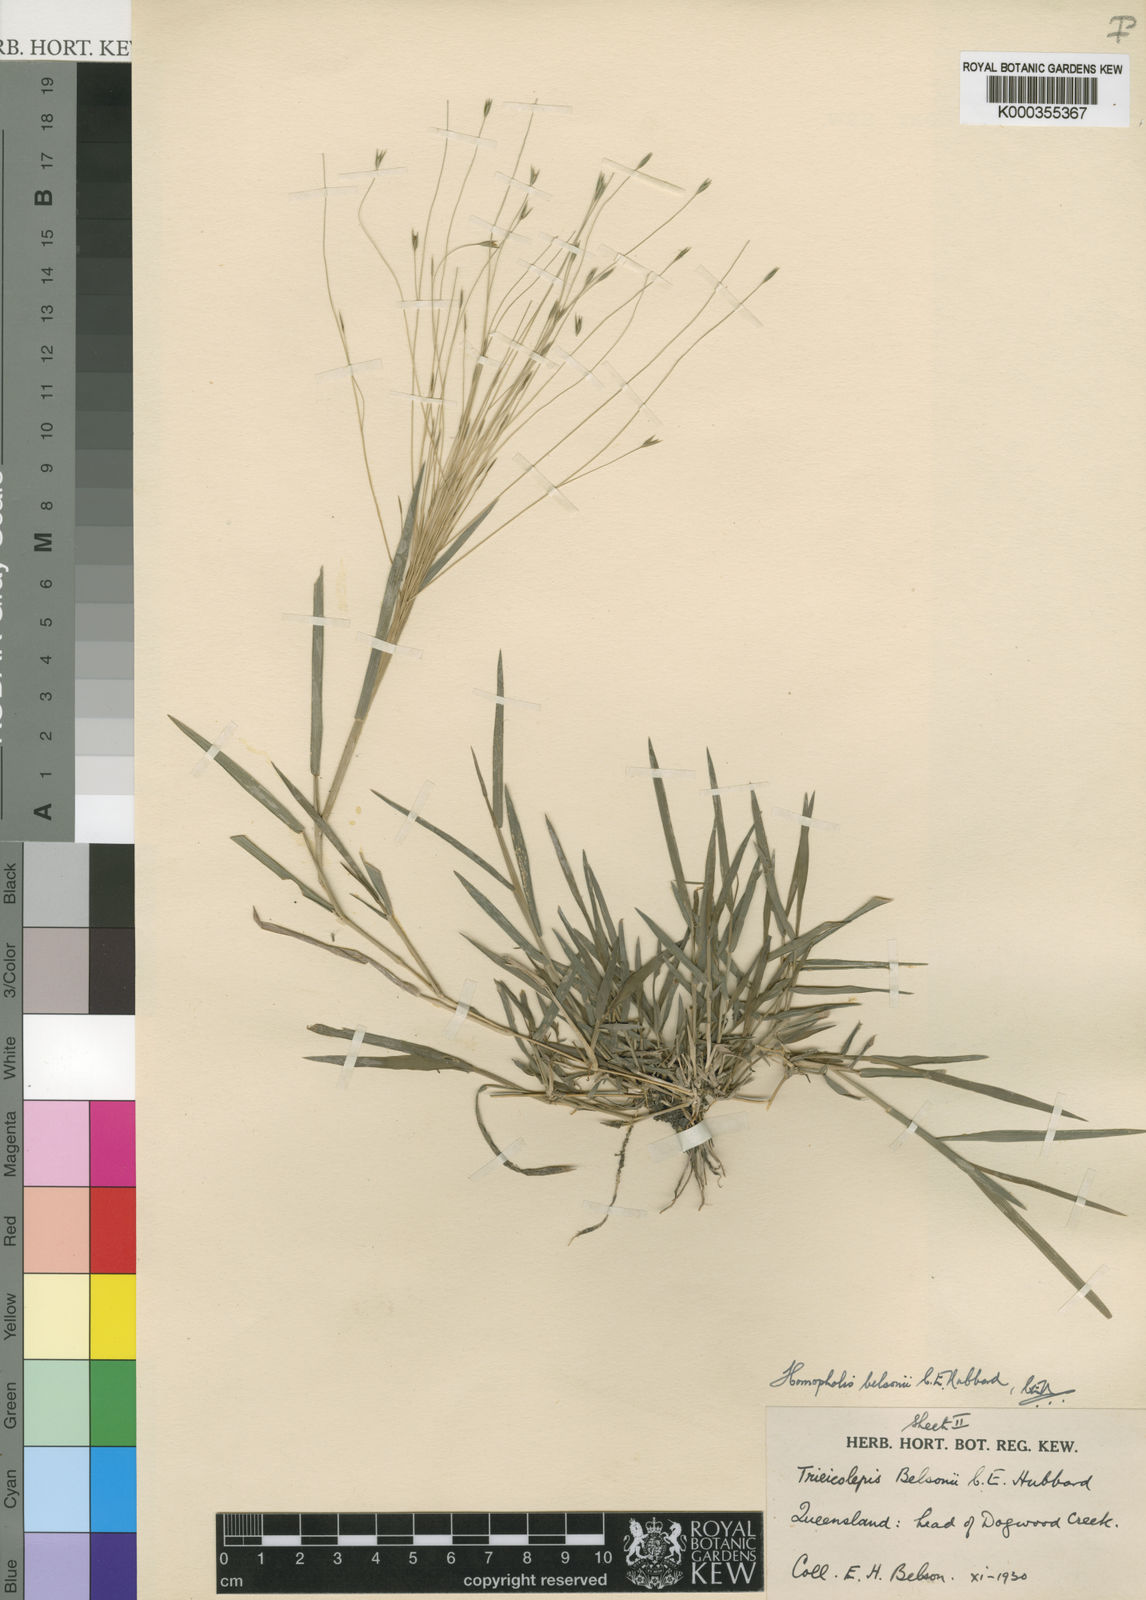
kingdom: Plantae
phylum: Tracheophyta
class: Liliopsida
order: Poales
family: Poaceae
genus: Homopholis
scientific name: Homopholis belsonii
